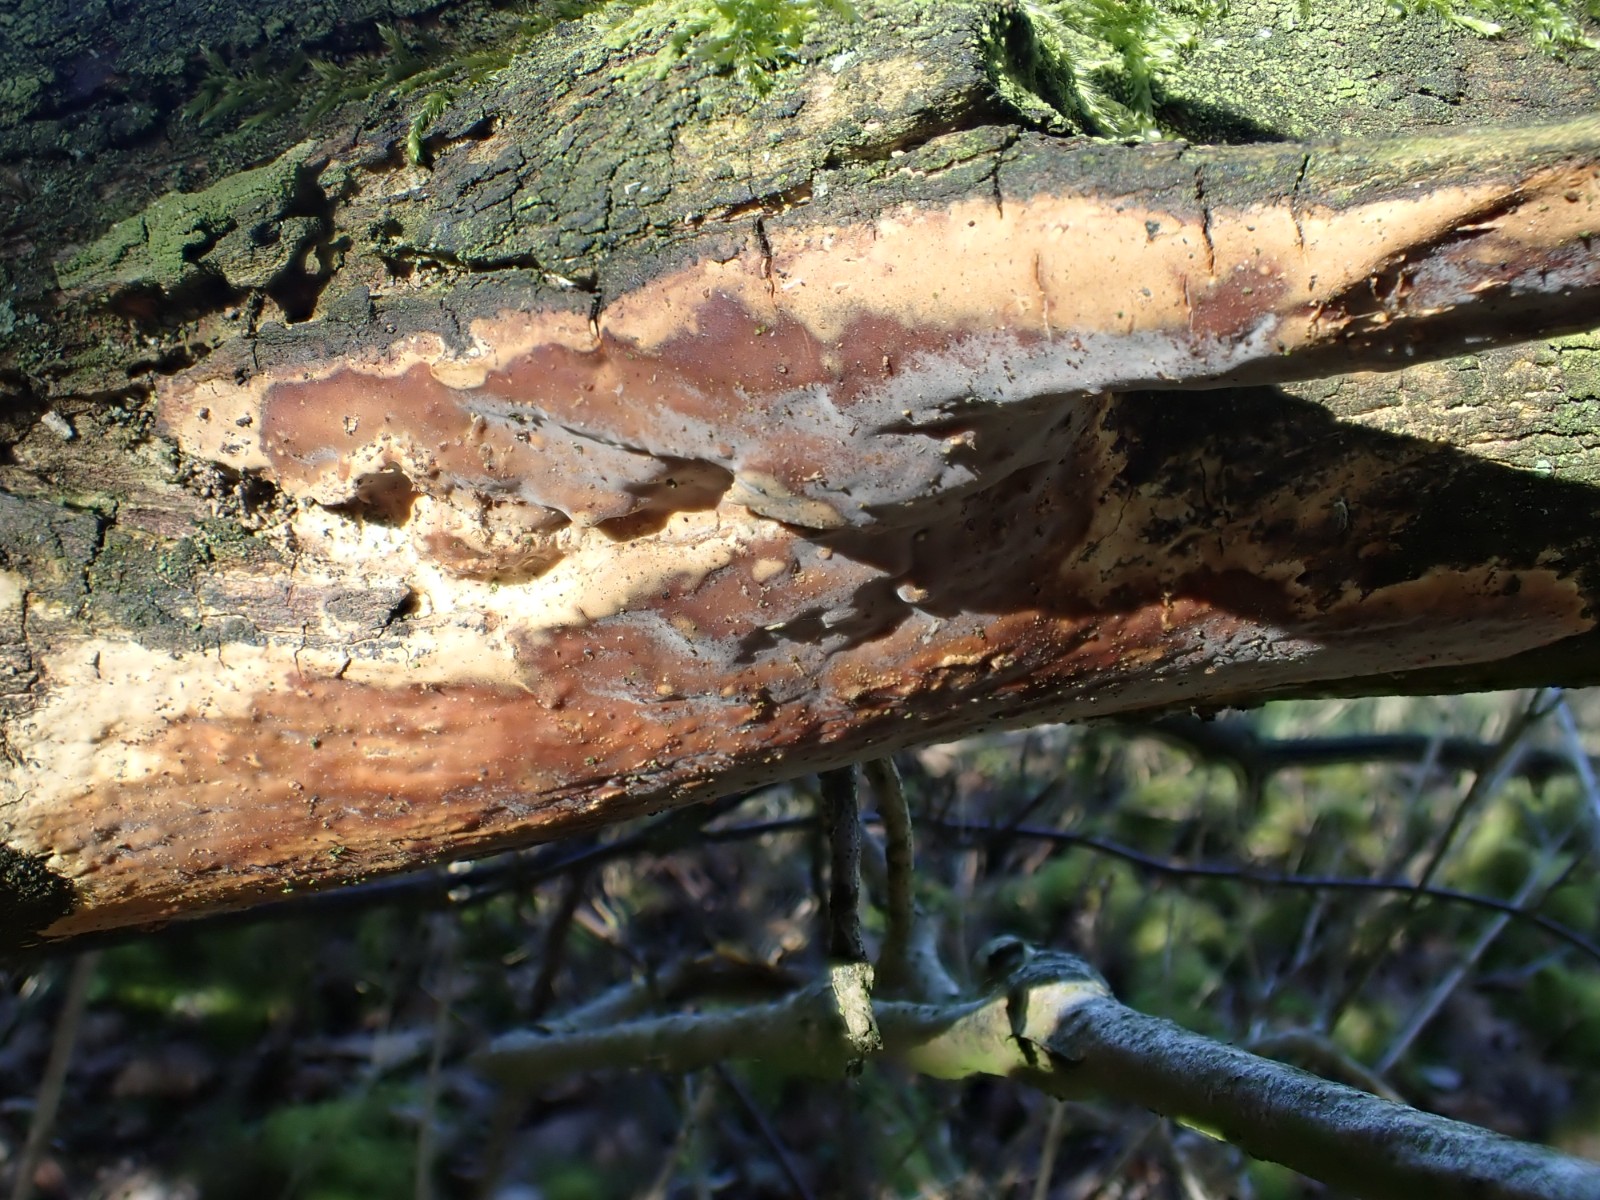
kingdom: Fungi
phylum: Basidiomycota
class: Agaricomycetes
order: Russulales
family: Peniophoraceae
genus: Scytinostroma
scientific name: Scytinostroma hemidichophyticum
